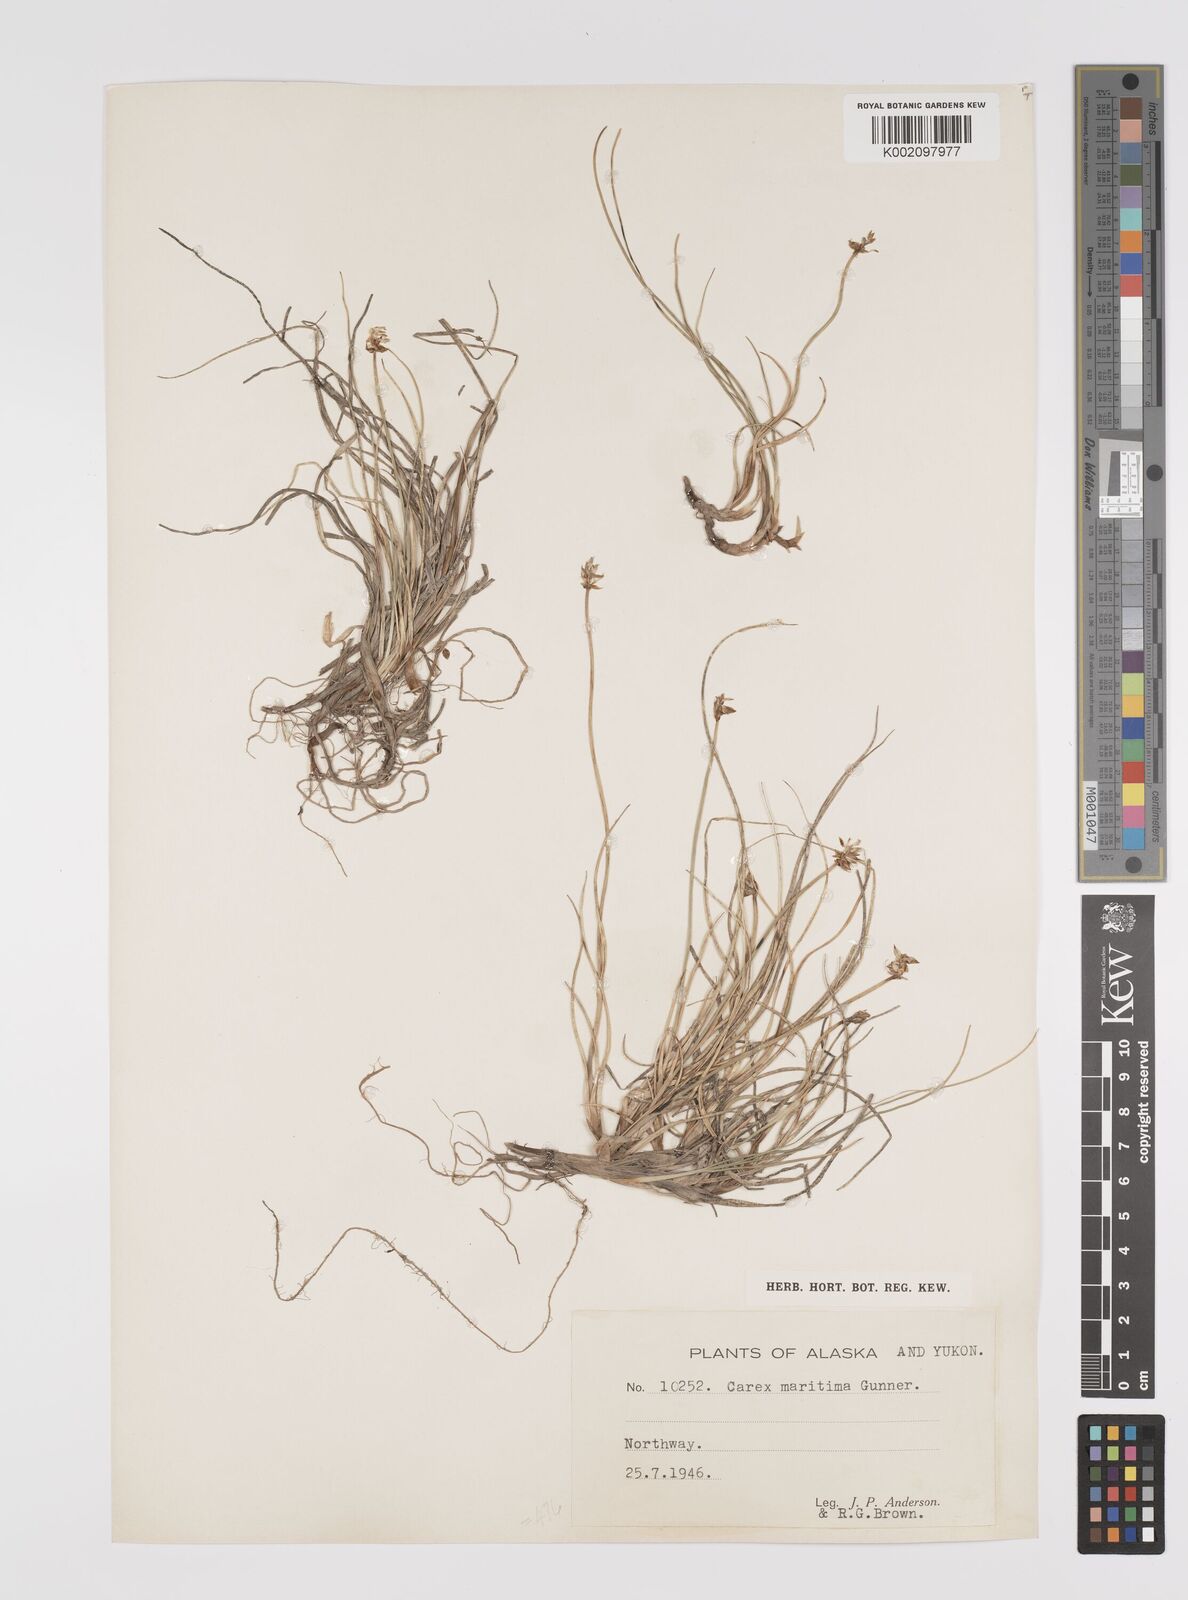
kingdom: Plantae
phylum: Tracheophyta
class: Liliopsida
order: Poales
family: Cyperaceae
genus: Carex
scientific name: Carex maritima
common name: Curved sedge
